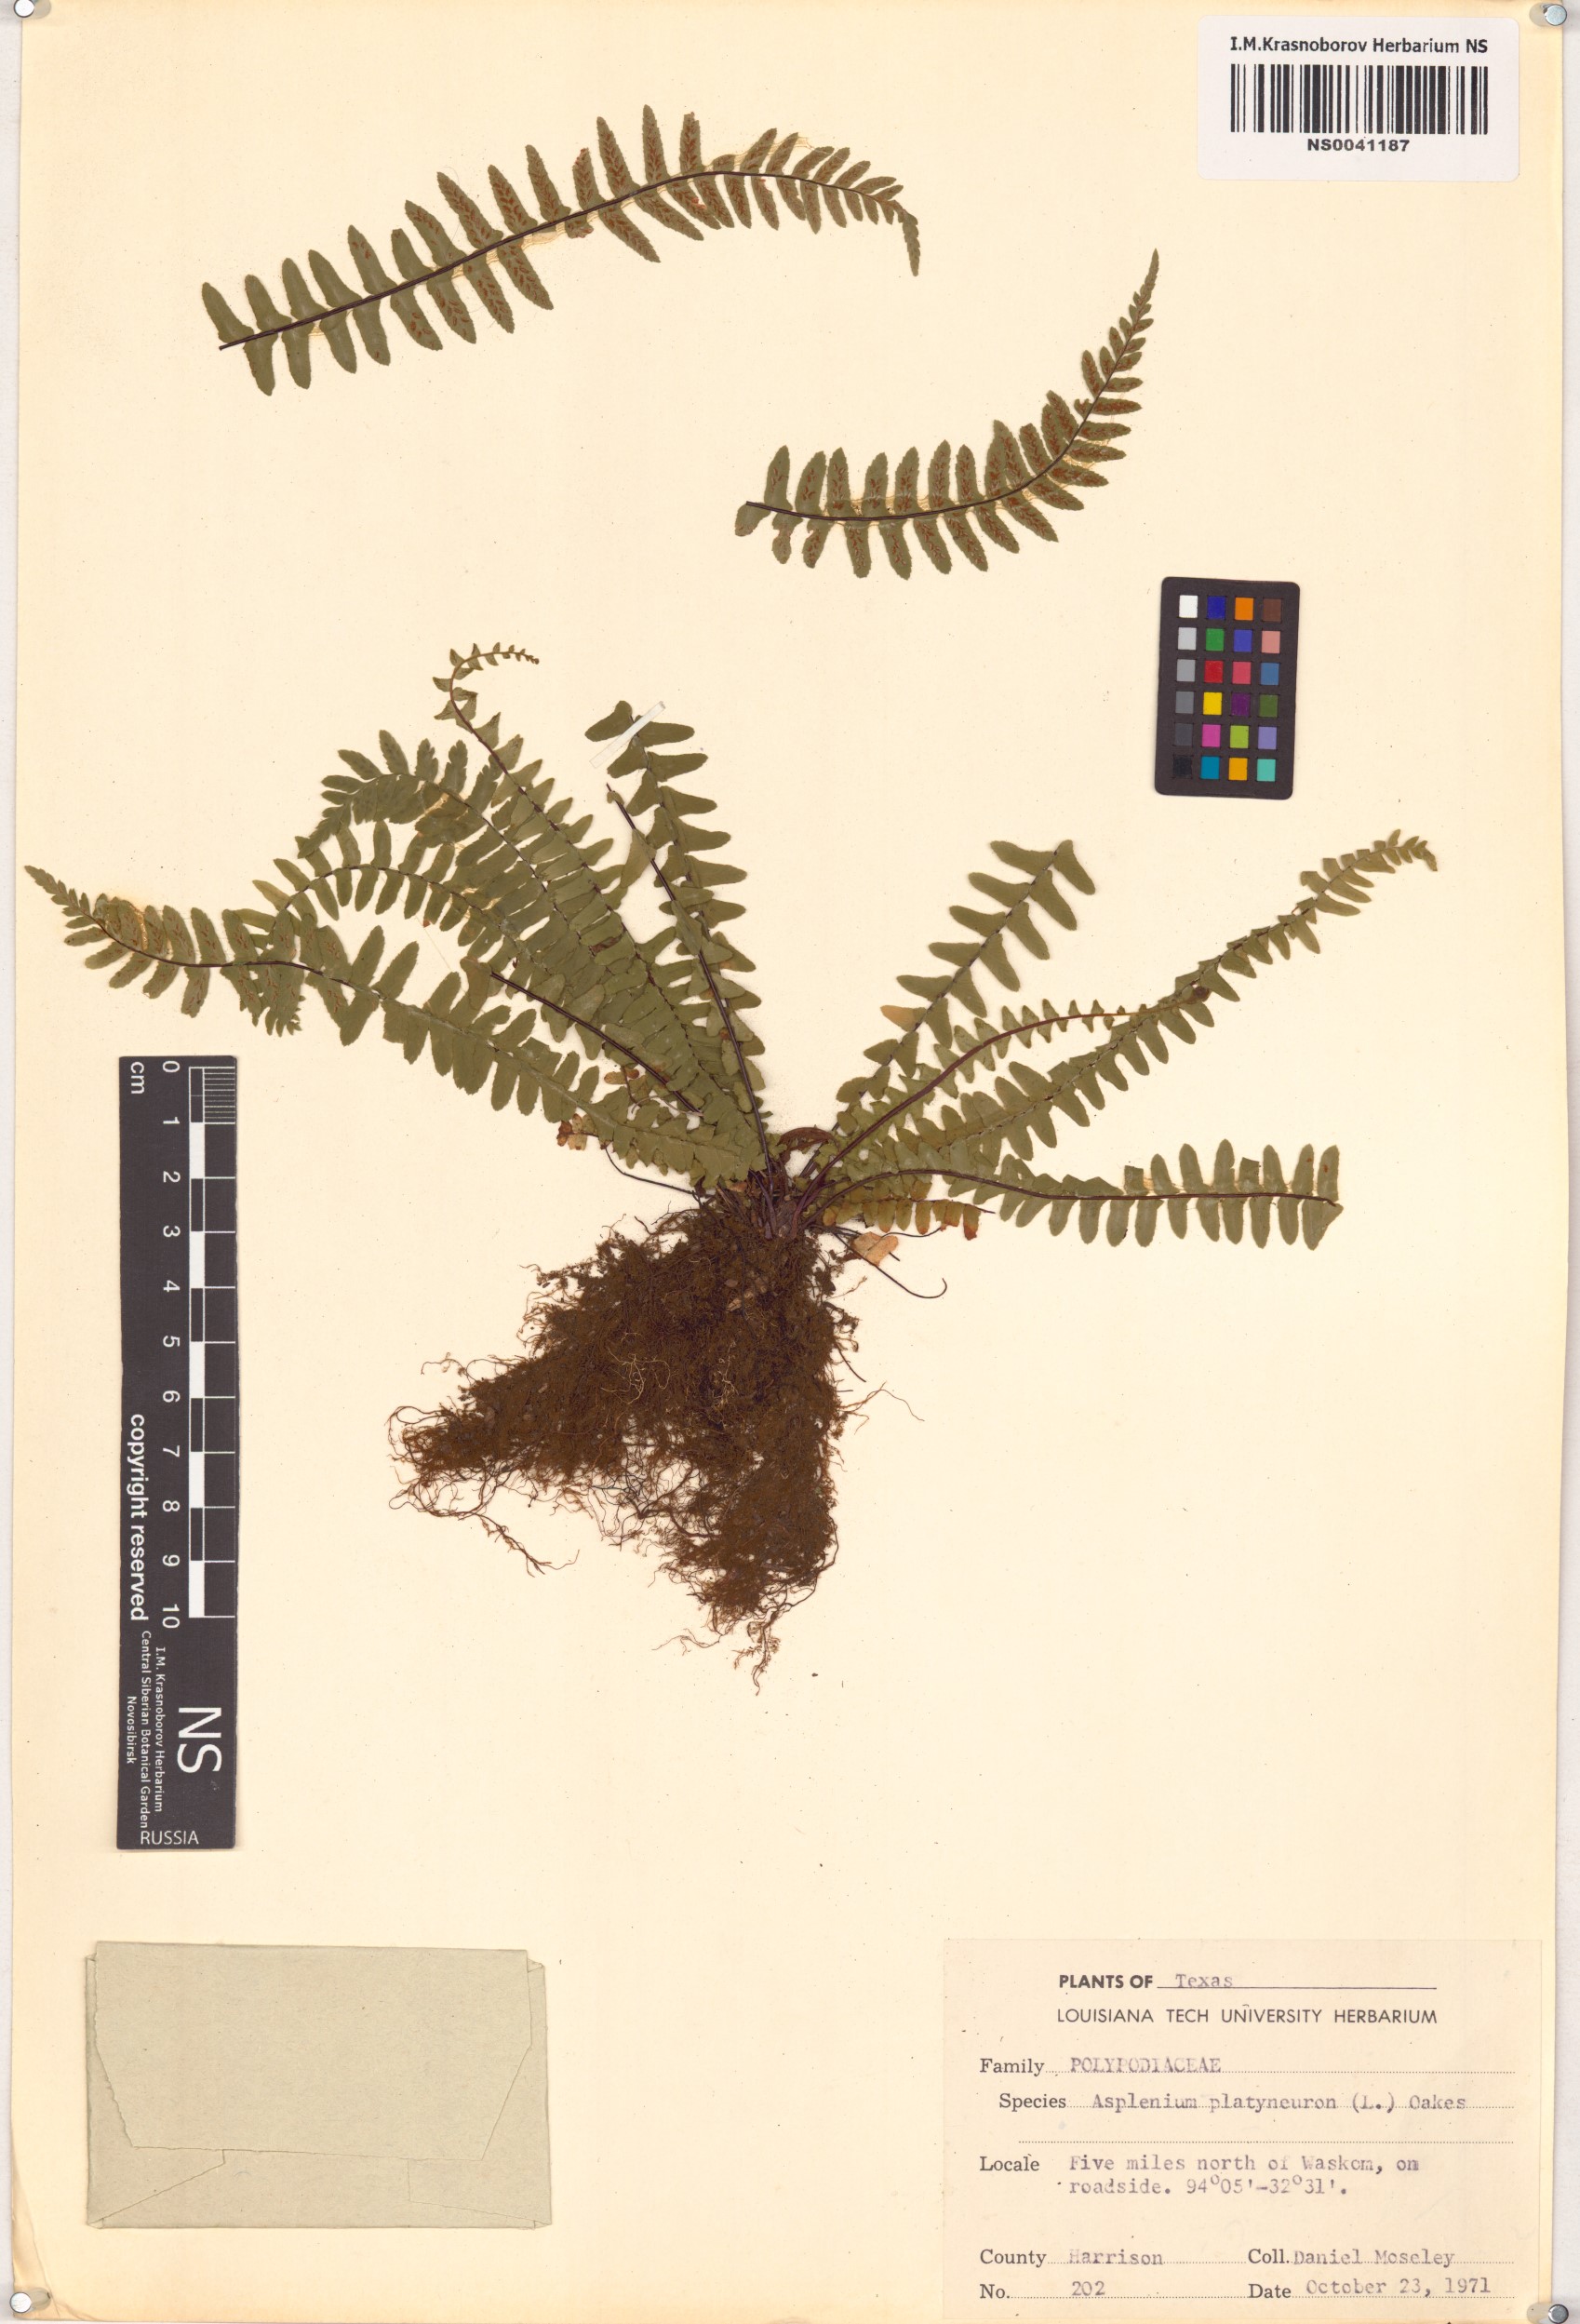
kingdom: Plantae
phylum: Tracheophyta
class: Polypodiopsida
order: Polypodiales
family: Aspleniaceae
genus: Asplenium
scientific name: Asplenium platyneuron
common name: Ebony spleenwort
